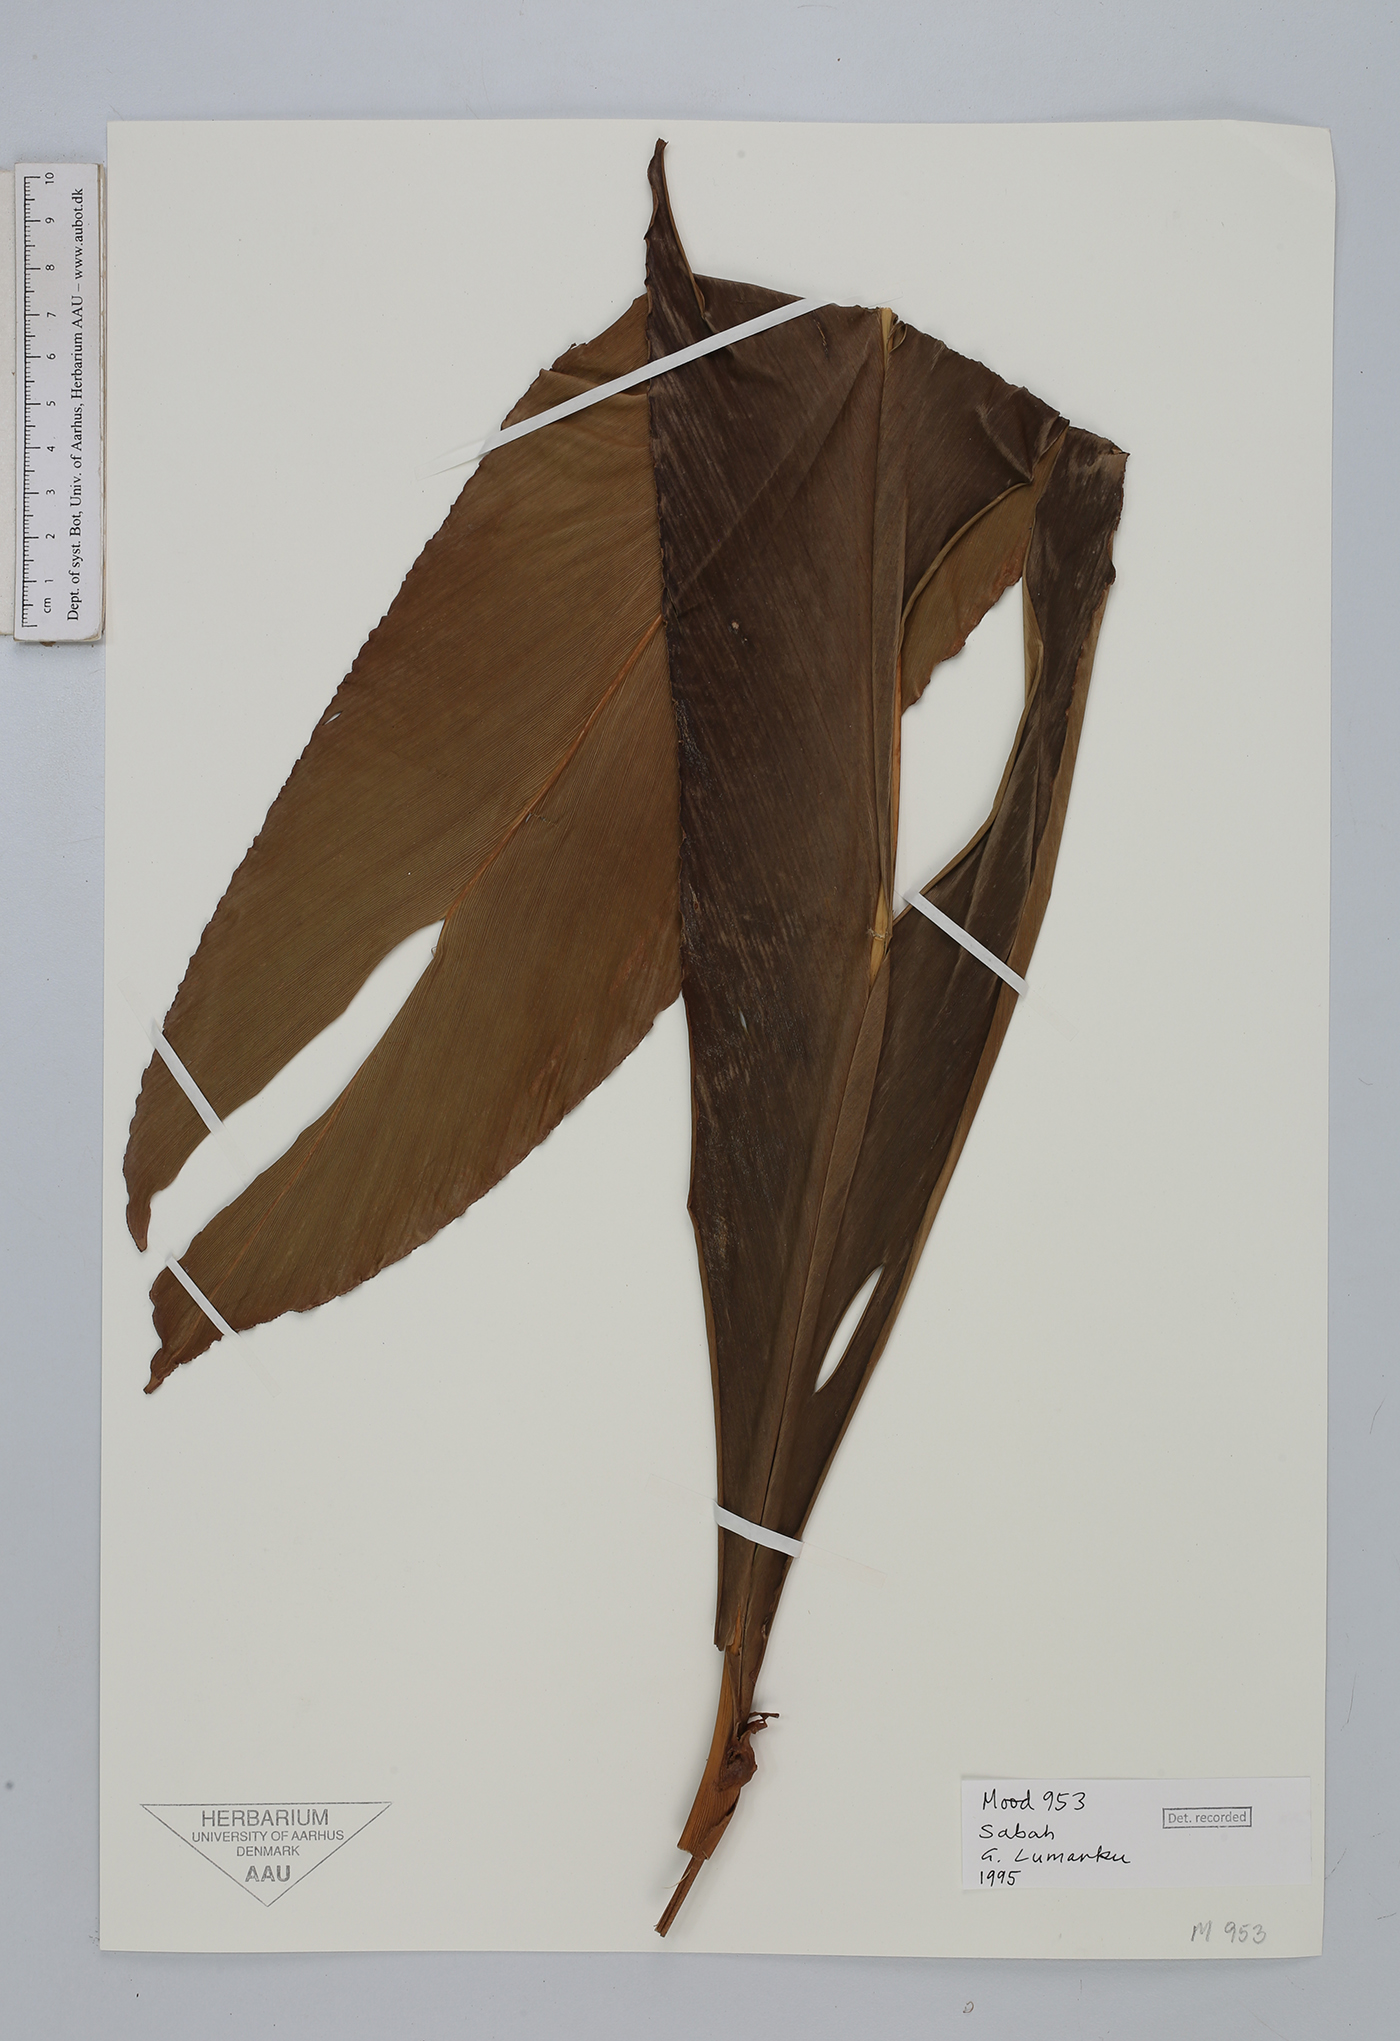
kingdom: Plantae
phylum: Tracheophyta
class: Liliopsida
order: Zingiberales
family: Zingiberaceae
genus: Etlingera
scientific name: Etlingera
